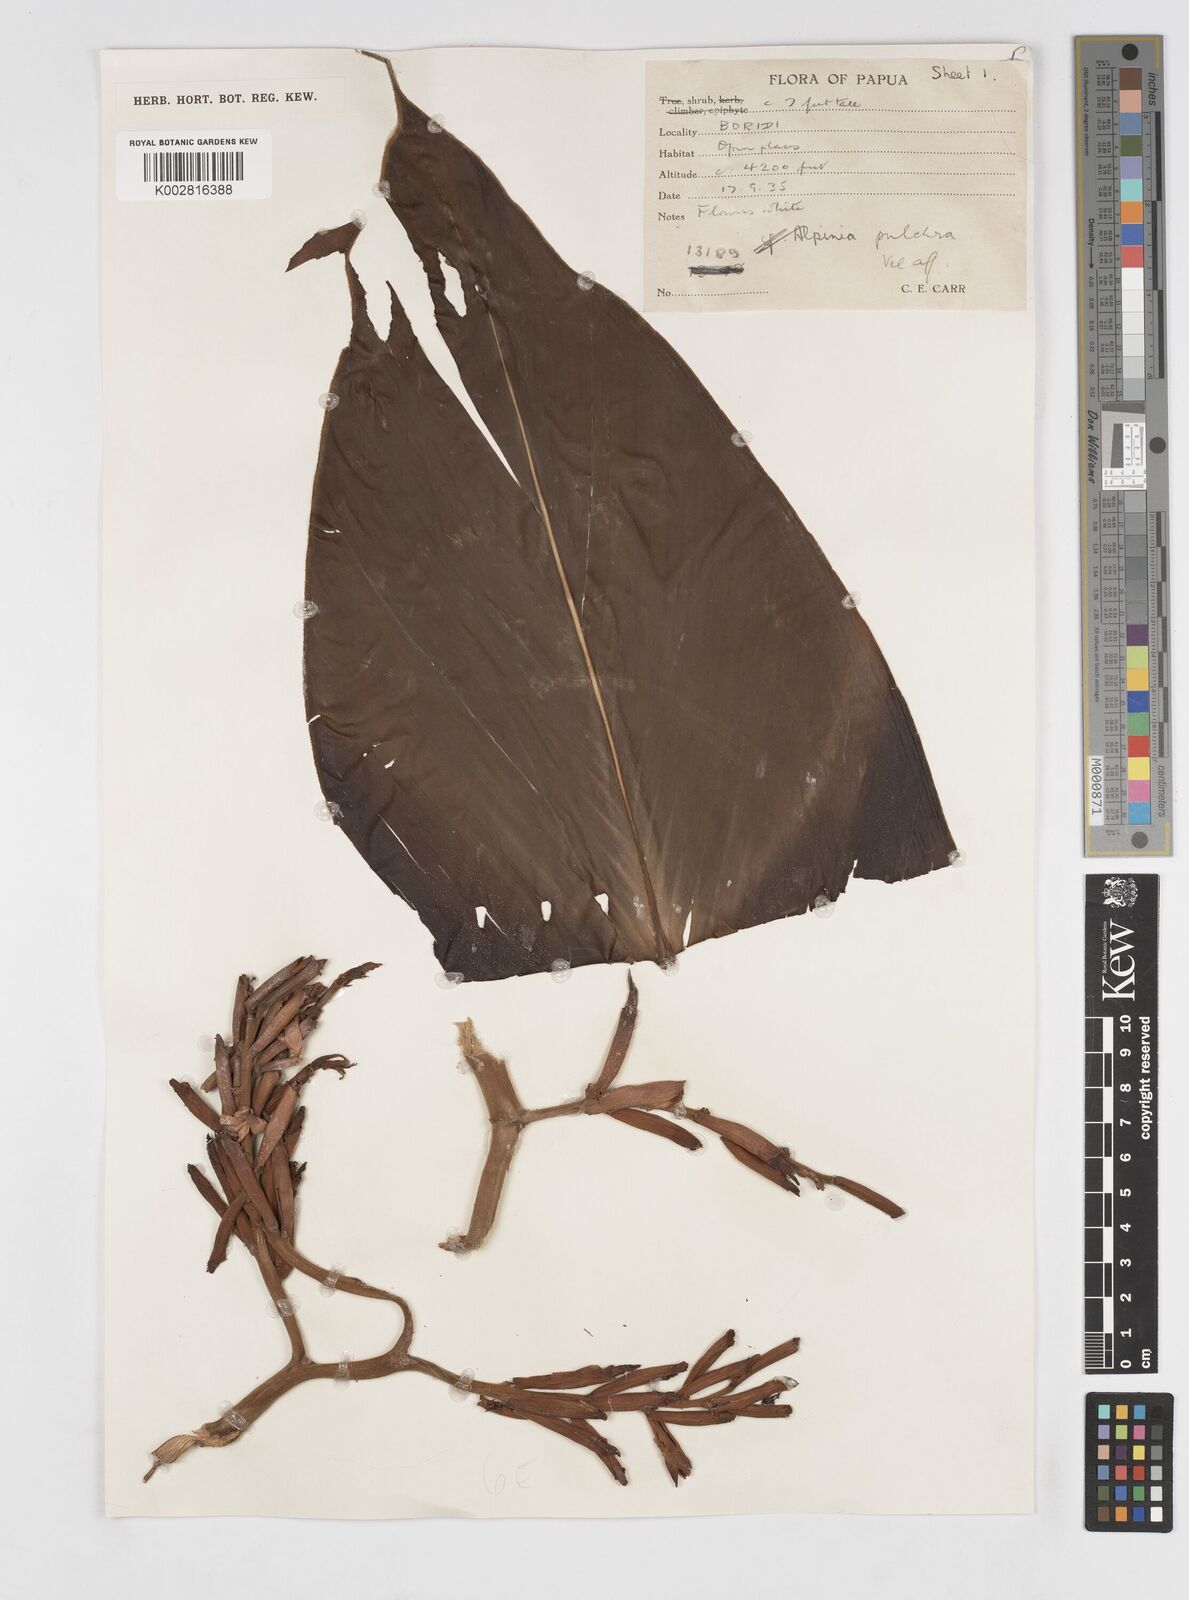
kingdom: Plantae
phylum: Tracheophyta
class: Liliopsida
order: Zingiberales
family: Zingiberaceae
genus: Alpinia
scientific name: Alpinia pulchra
